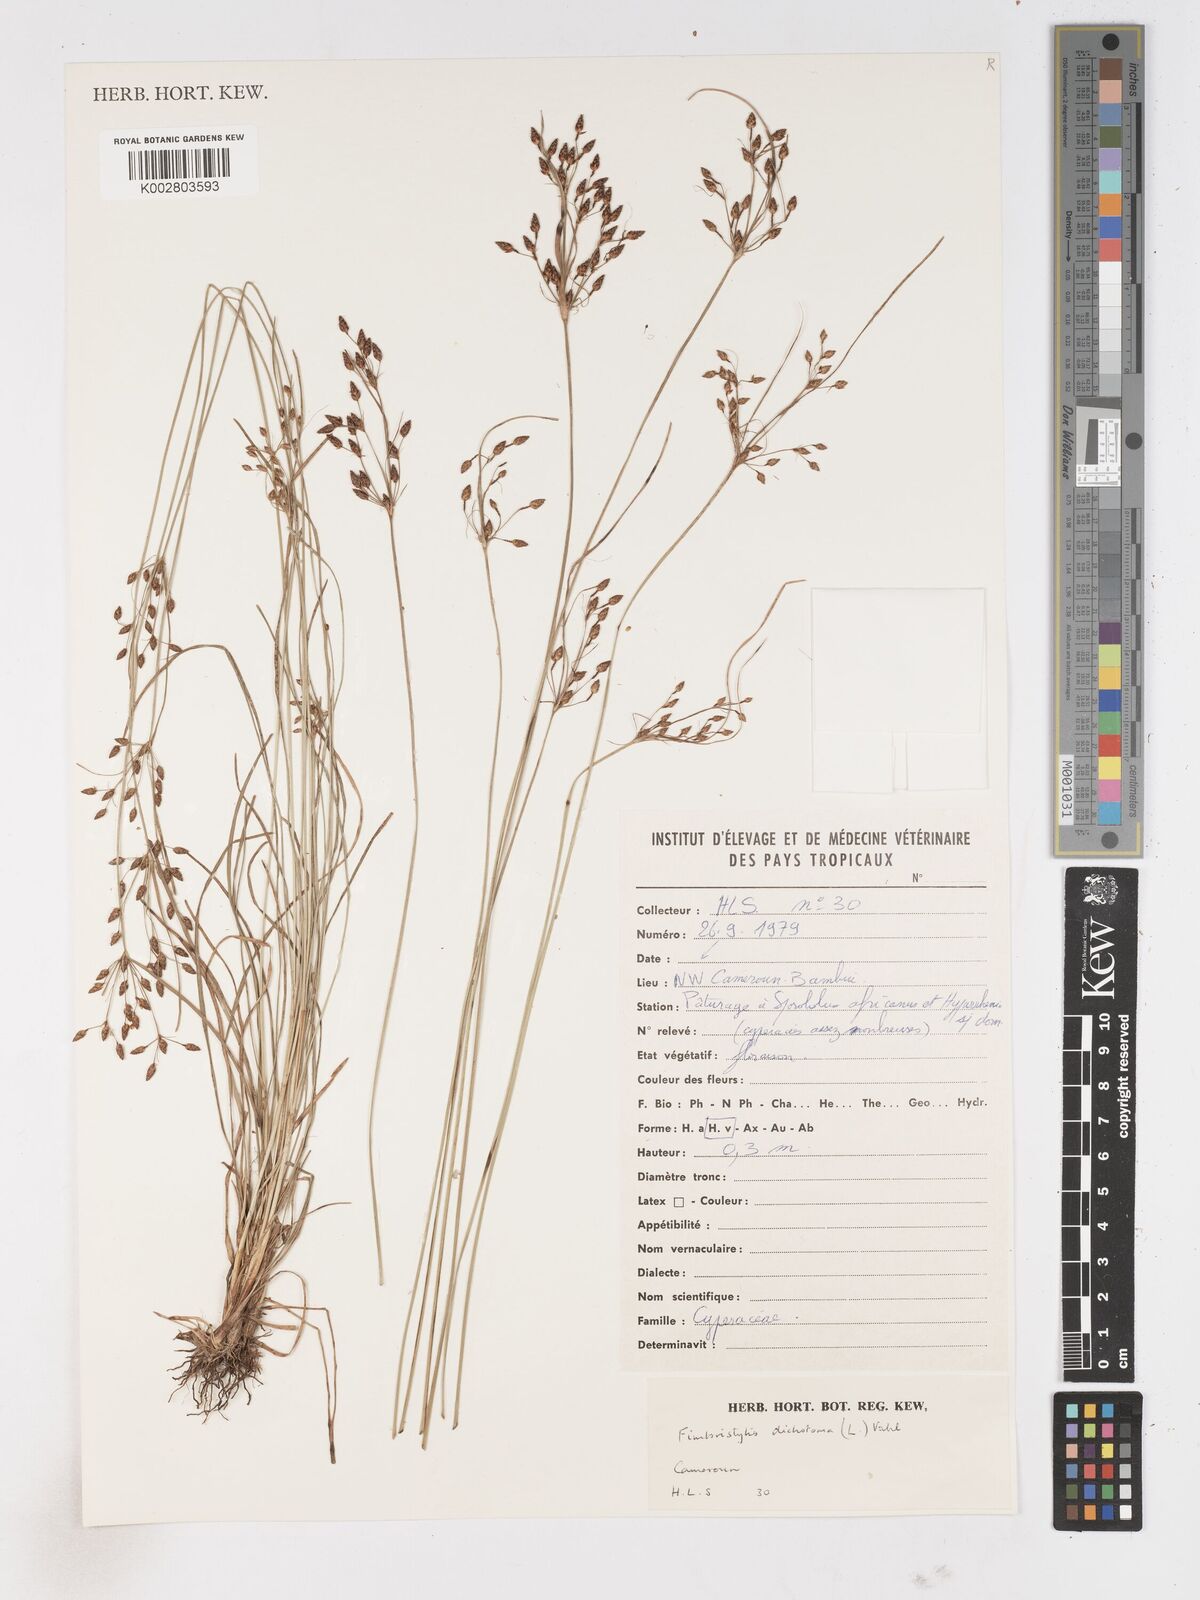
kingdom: Plantae
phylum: Tracheophyta
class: Liliopsida
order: Poales
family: Cyperaceae
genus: Fimbristylis
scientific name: Fimbristylis dichotoma
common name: Forked fimbry
